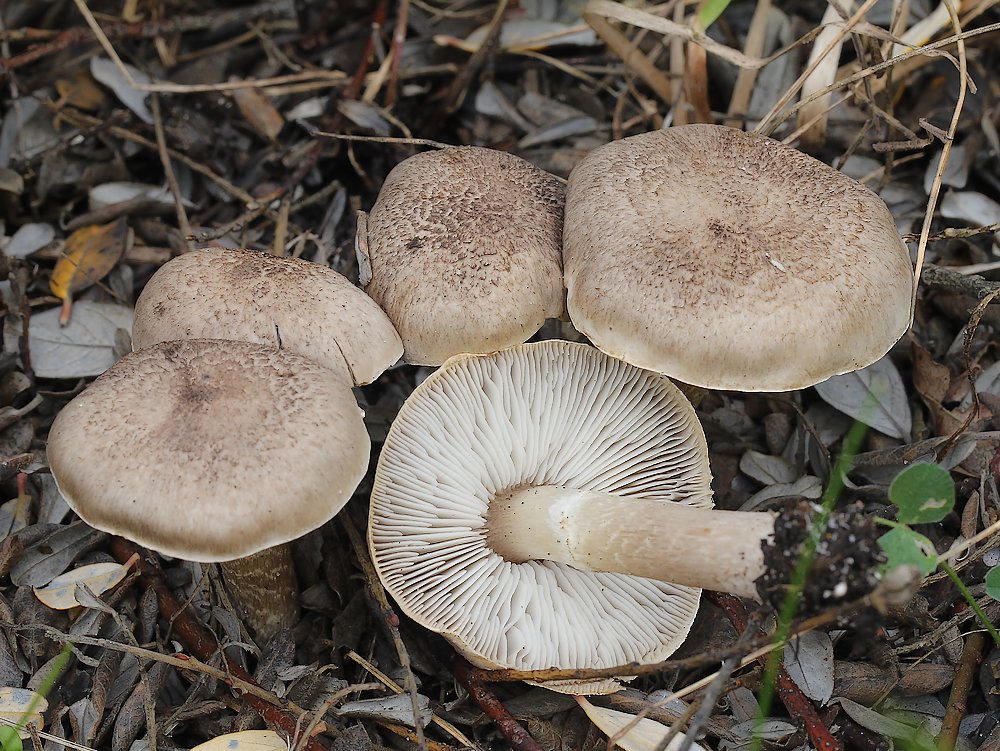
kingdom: Fungi
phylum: Basidiomycota
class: Agaricomycetes
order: Agaricales
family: Tricholomataceae
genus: Tricholoma
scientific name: Tricholoma argyraceum
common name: slør-ridderhat
